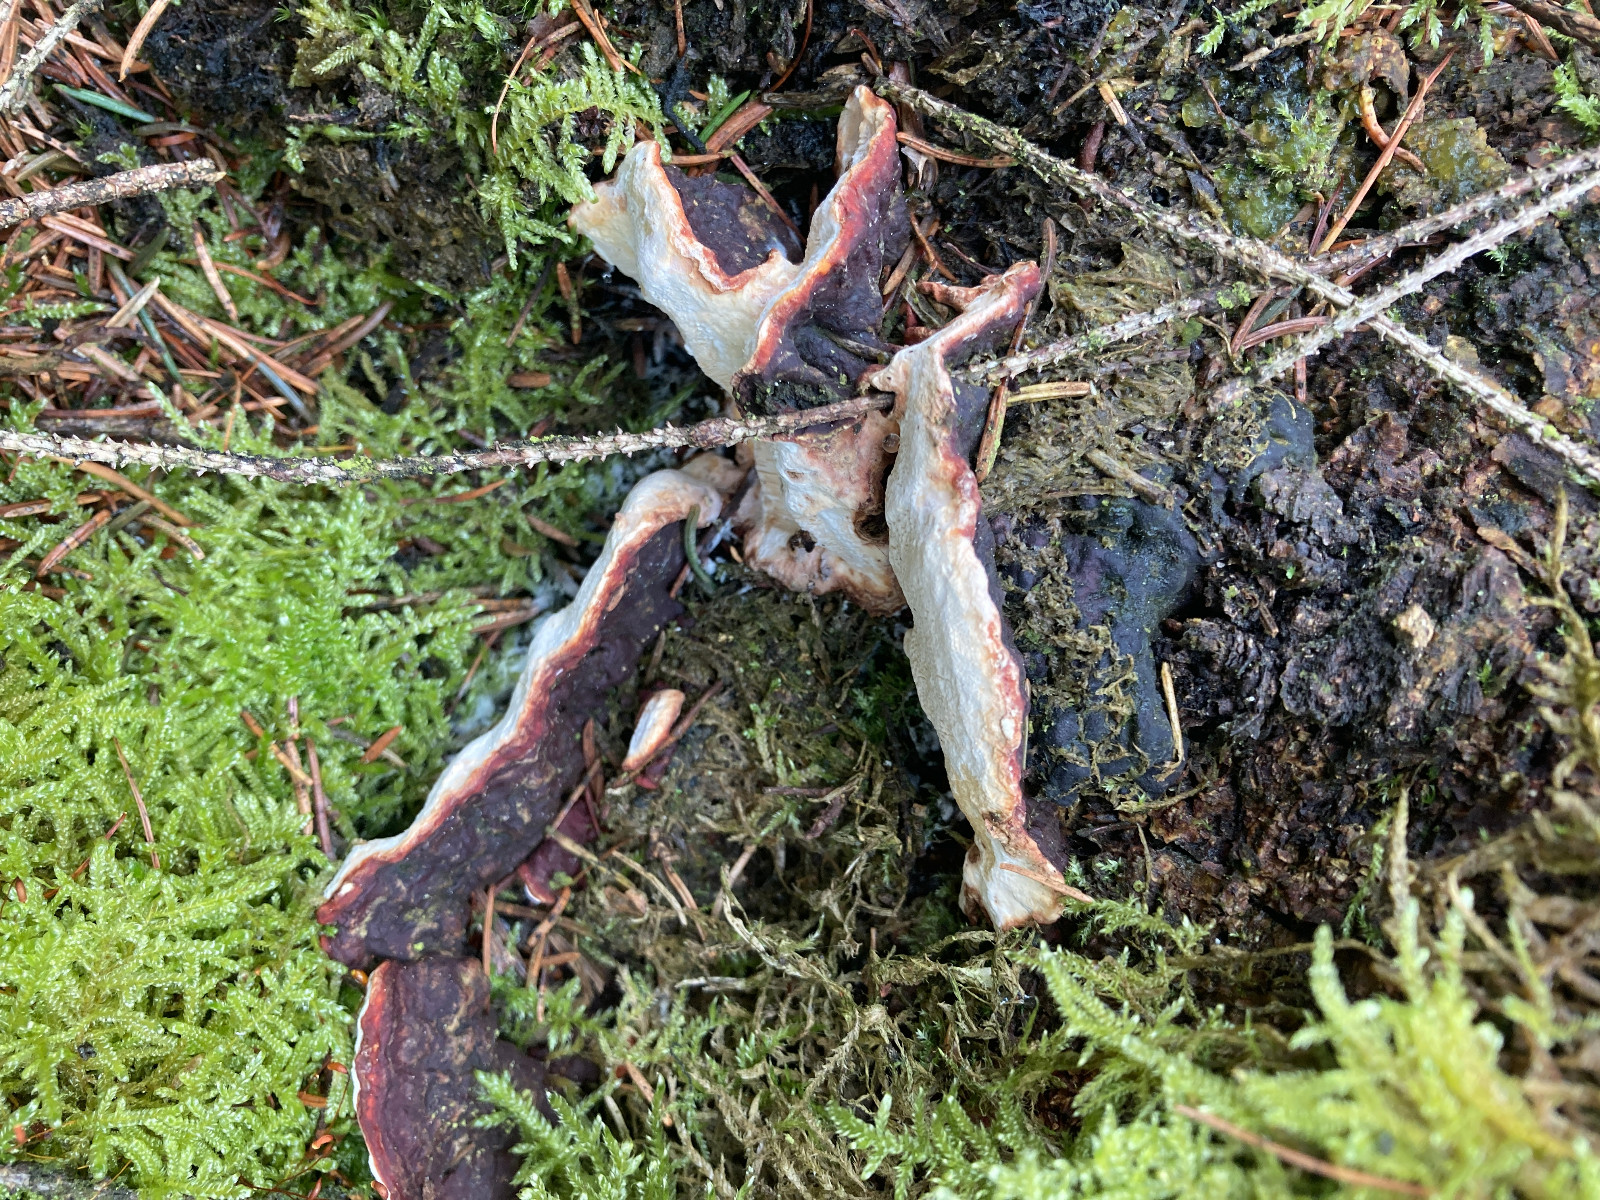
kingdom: Fungi
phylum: Basidiomycota
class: Agaricomycetes
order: Russulales
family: Bondarzewiaceae
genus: Heterobasidion
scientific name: Heterobasidion annosum
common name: almindelig rodfordærver
